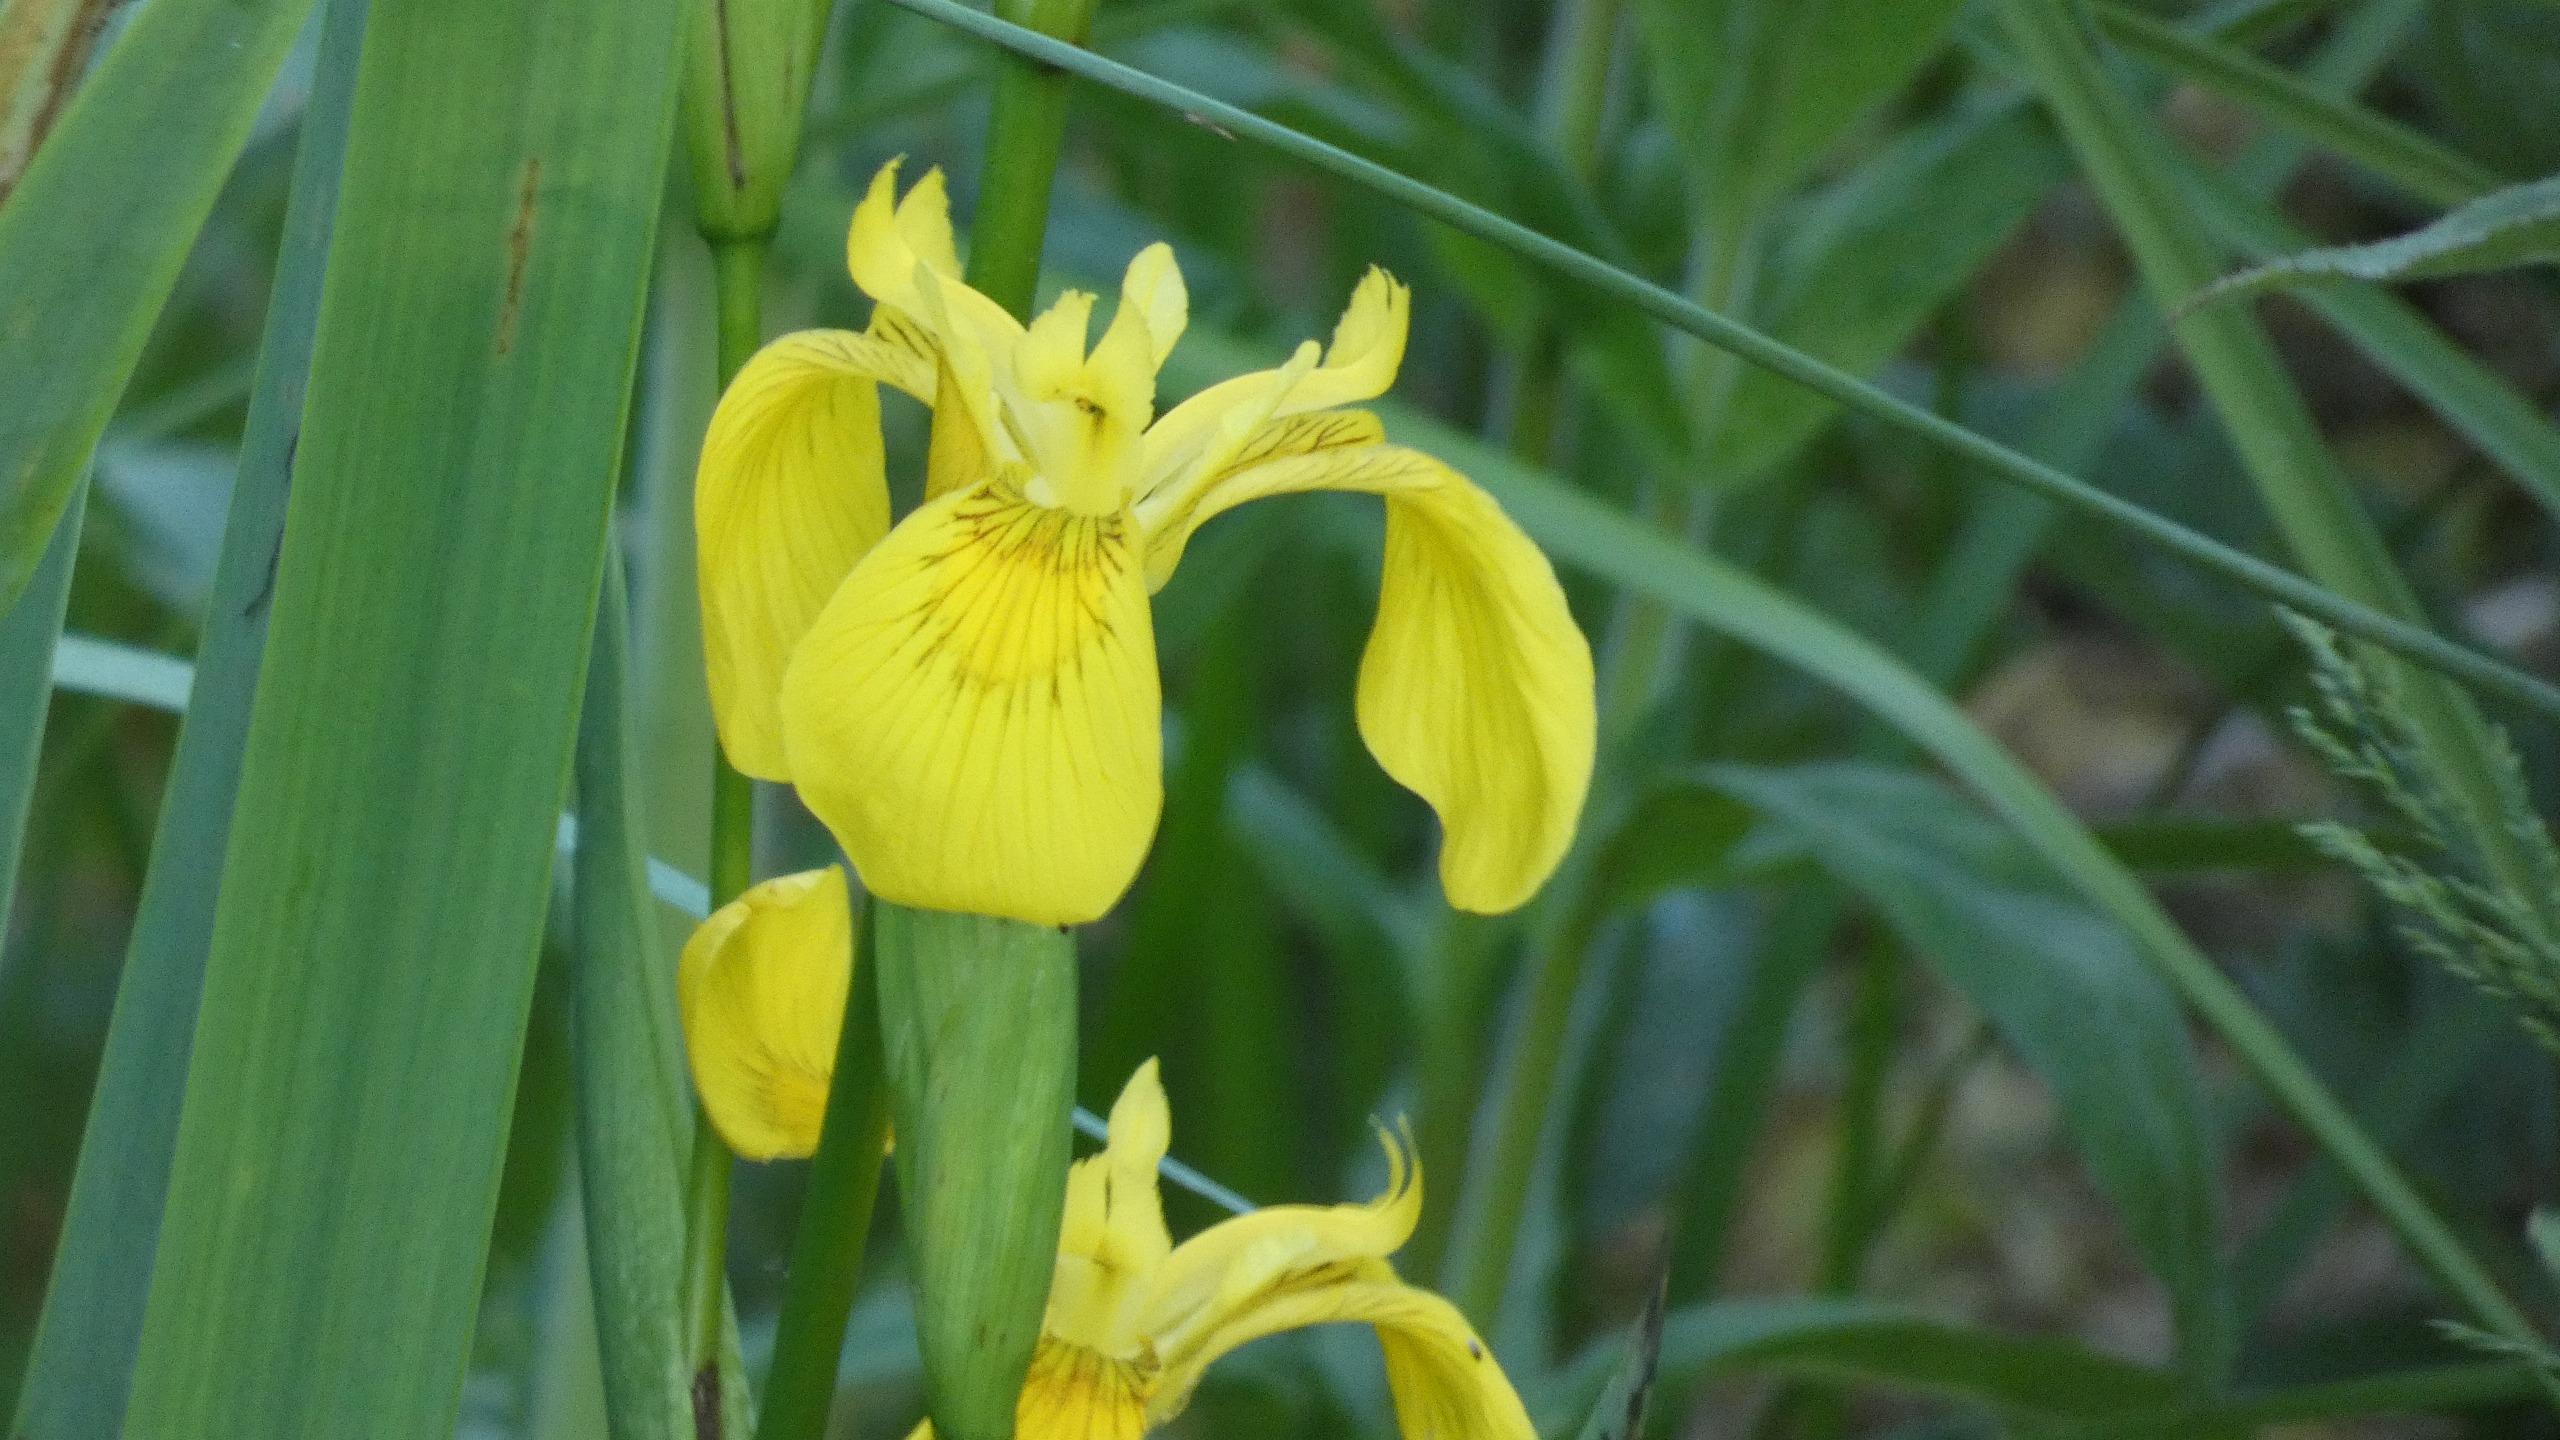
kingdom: Plantae
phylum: Tracheophyta
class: Liliopsida
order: Asparagales
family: Iridaceae
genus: Iris
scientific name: Iris pseudacorus
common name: Gul iris
